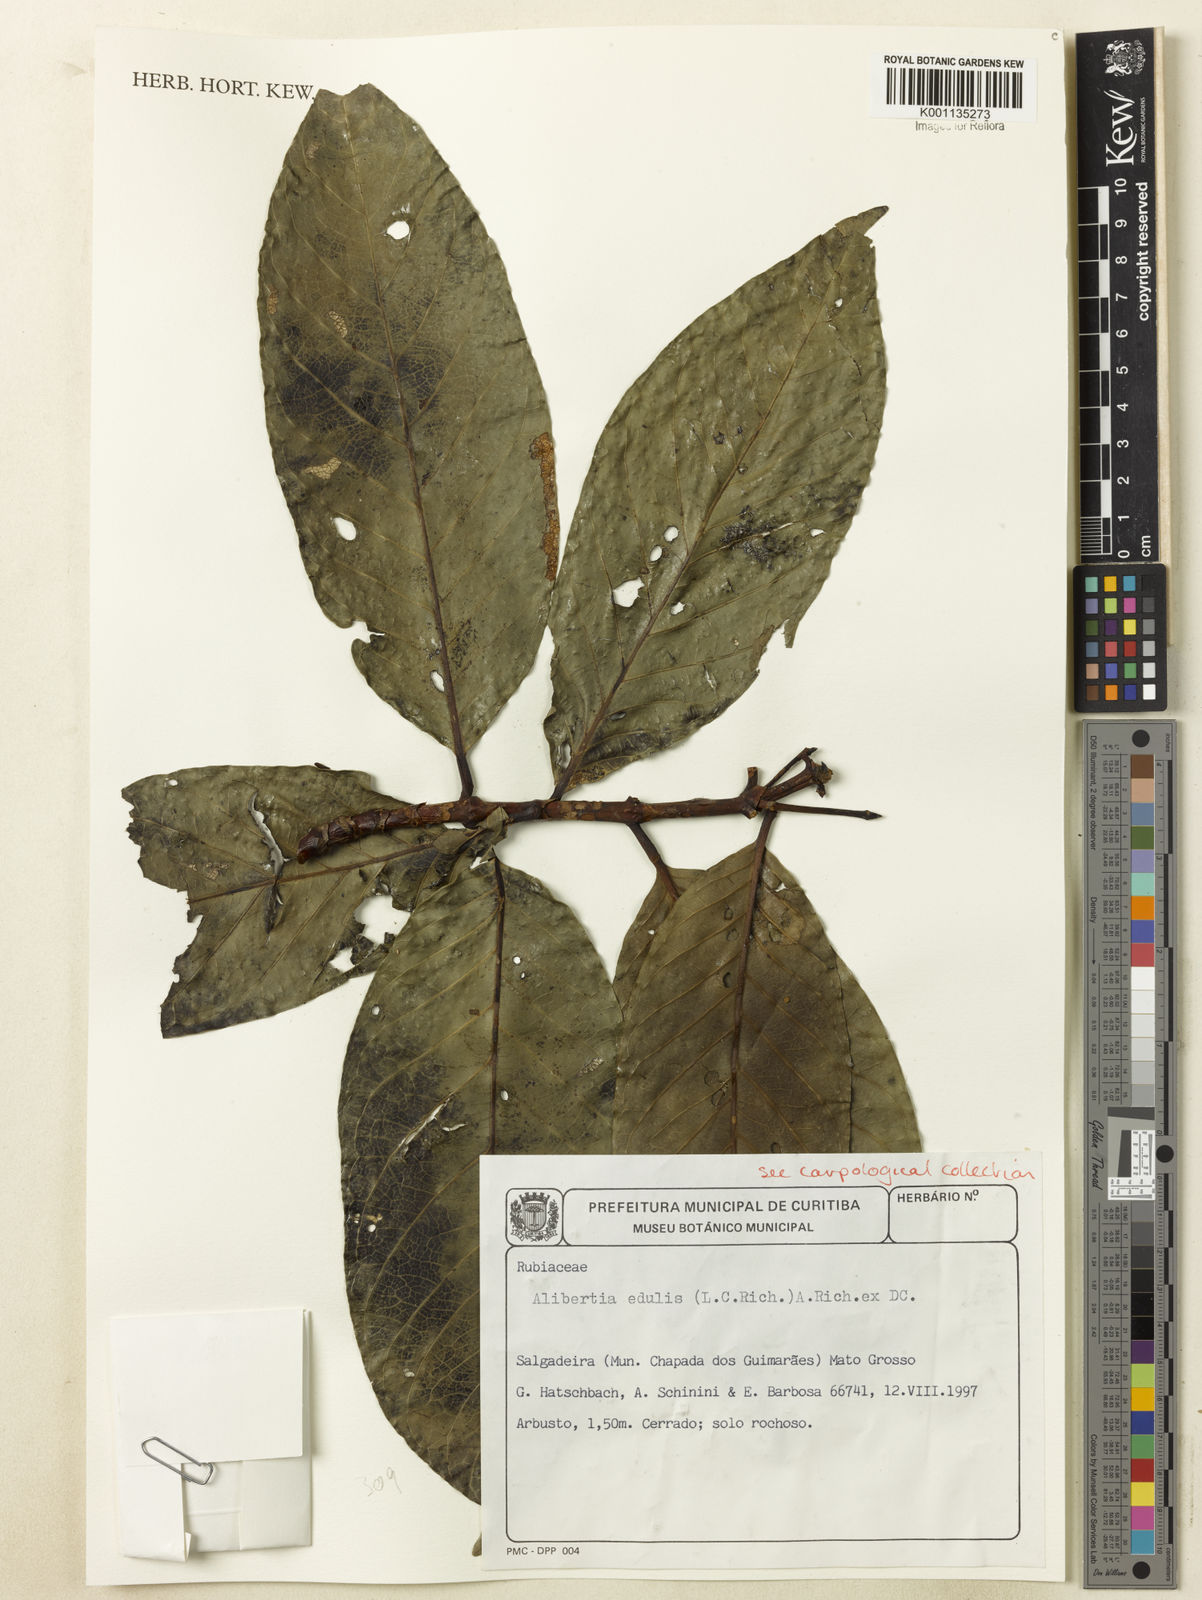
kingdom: Plantae
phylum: Tracheophyta
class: Magnoliopsida
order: Gentianales
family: Rubiaceae
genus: Alibertia
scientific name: Alibertia edulis
